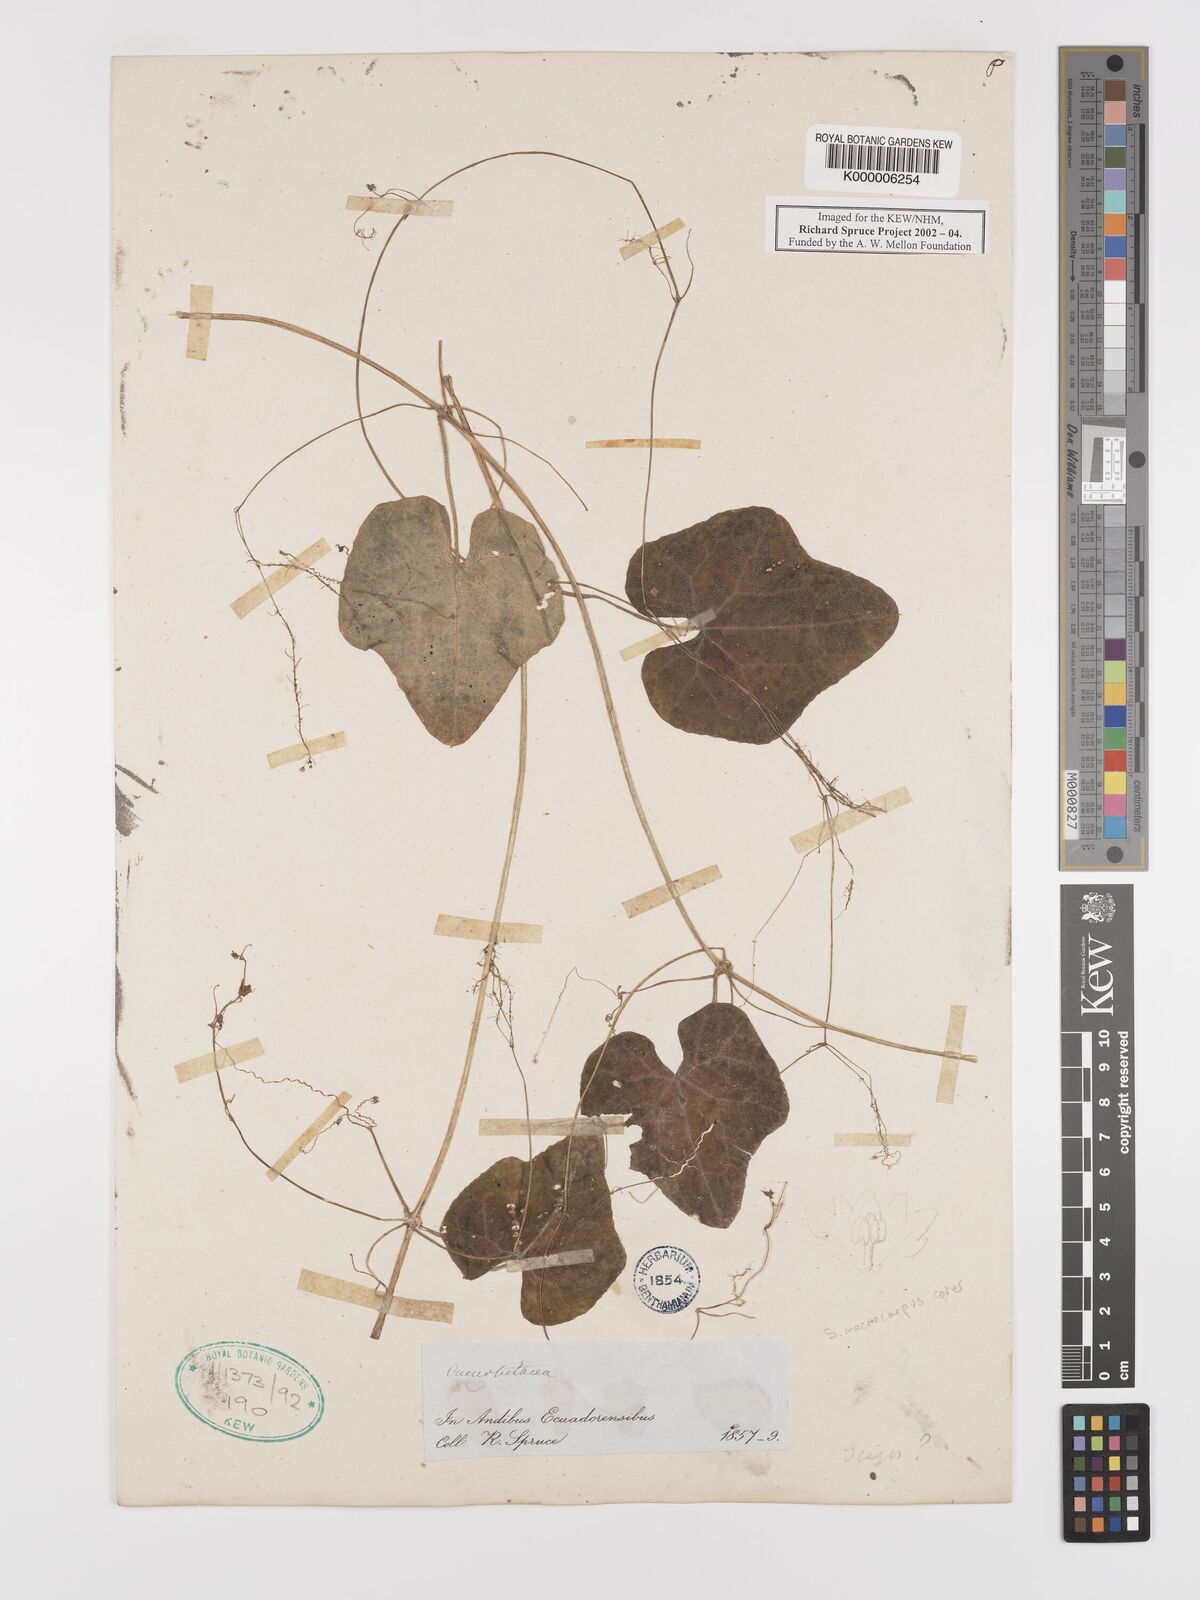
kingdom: Plantae
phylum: Tracheophyta
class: Magnoliopsida
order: Cucurbitales
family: Cucurbitaceae
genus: Sicyos
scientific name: Sicyos macrocarpus
